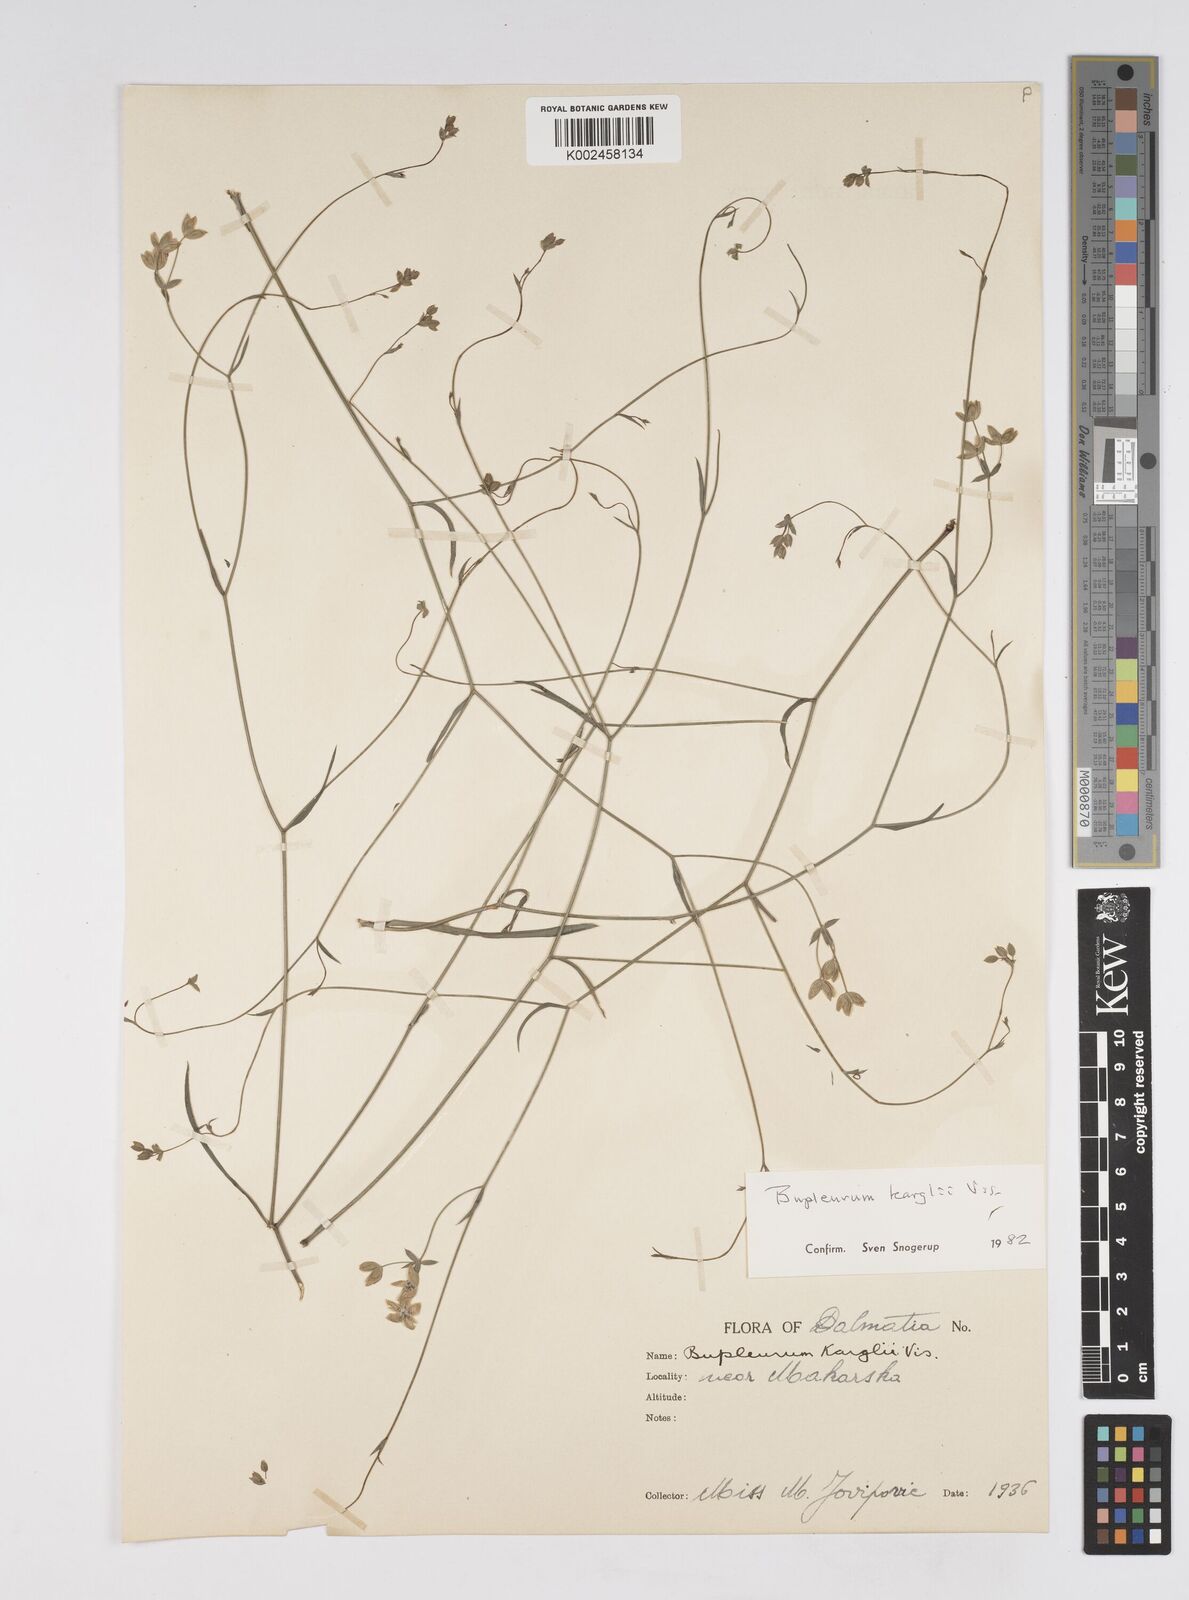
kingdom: Plantae
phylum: Tracheophyta
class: Magnoliopsida
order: Apiales
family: Apiaceae
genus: Bupleurum
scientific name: Bupleurum karglii
